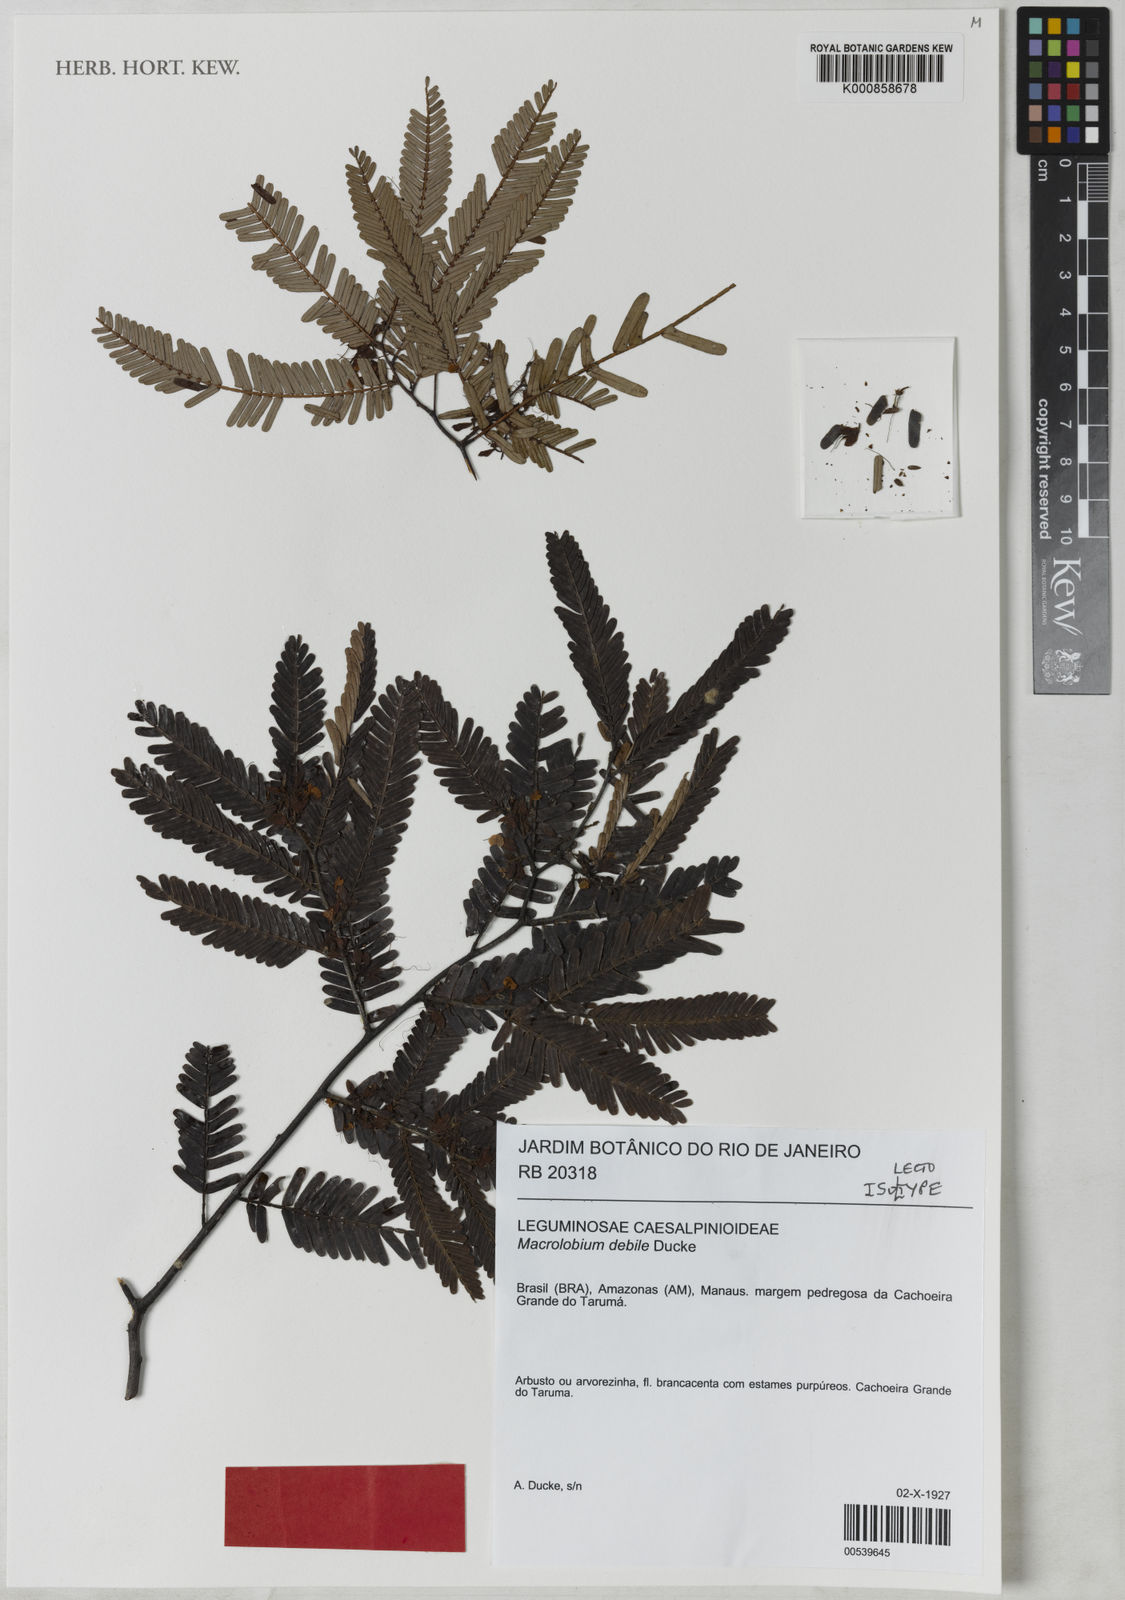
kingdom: Plantae
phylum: Tracheophyta
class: Magnoliopsida
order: Fabales
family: Fabaceae
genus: Macrolobium
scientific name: Macrolobium gracile
